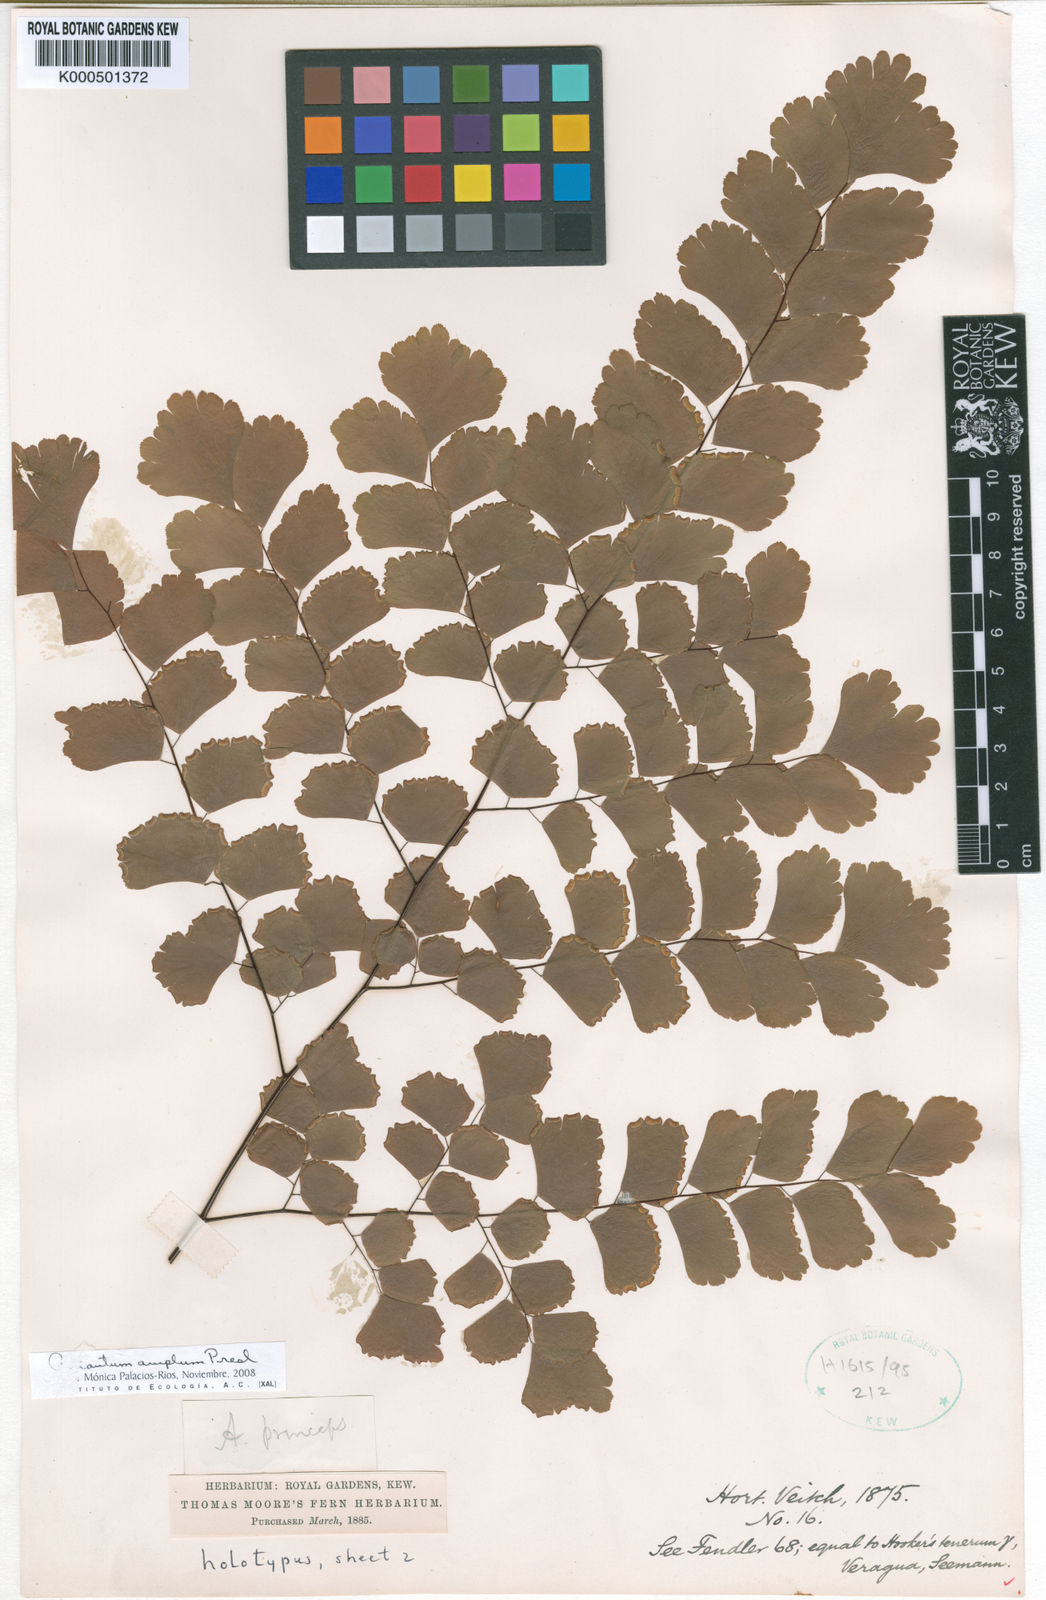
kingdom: Plantae
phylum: Tracheophyta
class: Polypodiopsida
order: Polypodiales
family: Pteridaceae
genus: Adiantum
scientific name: Adiantum amplum
